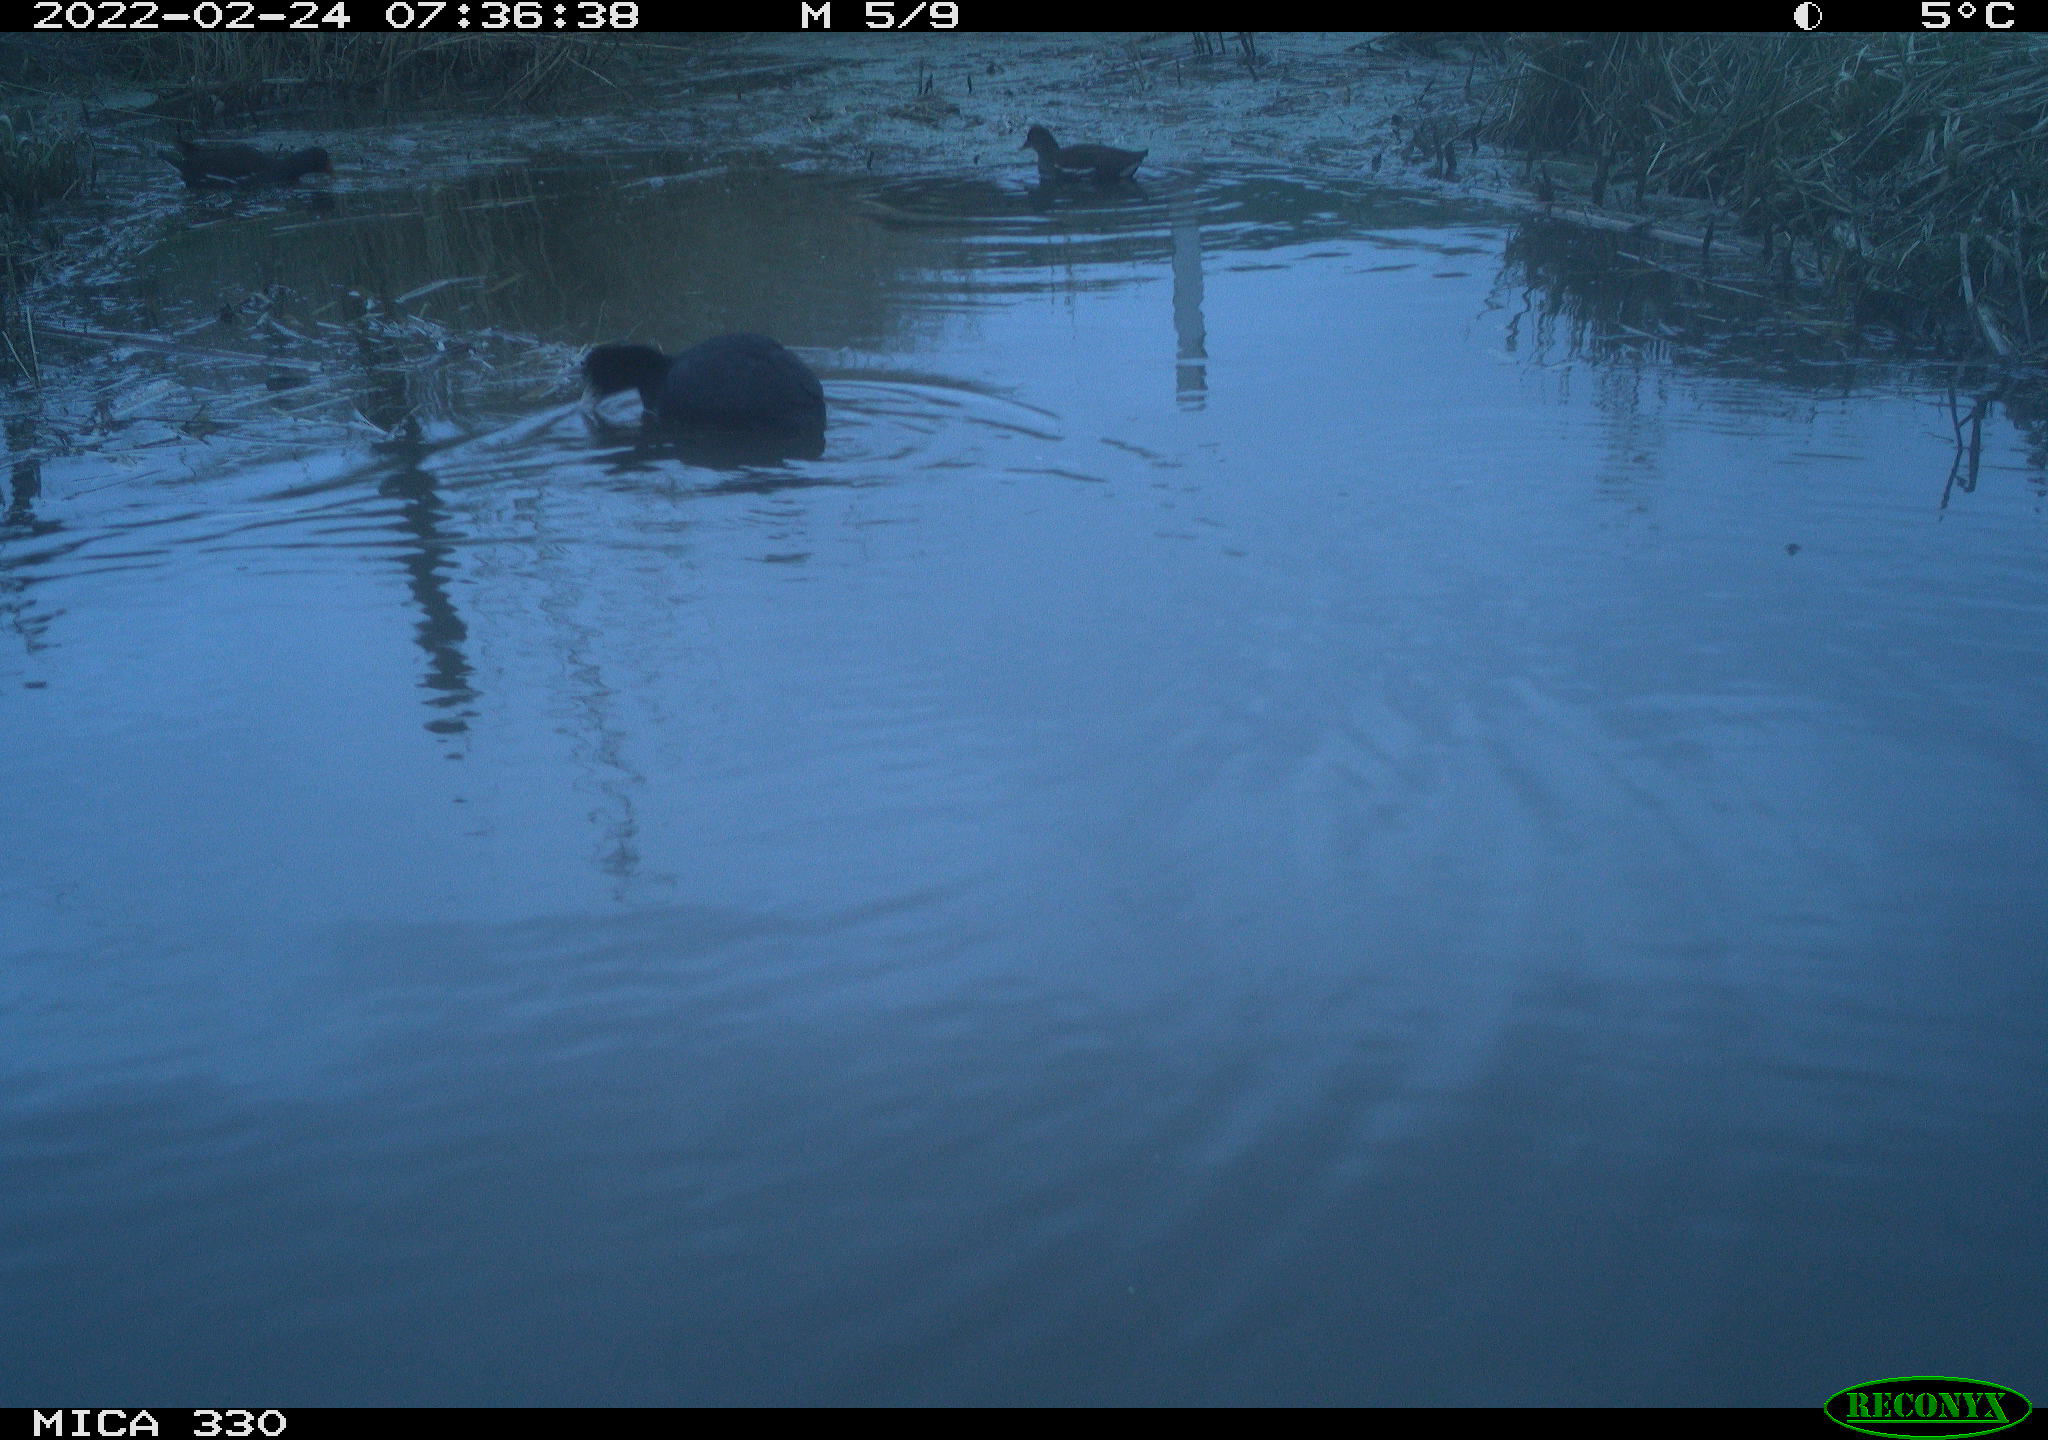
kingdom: Animalia
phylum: Chordata
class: Aves
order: Gruiformes
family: Rallidae
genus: Fulica
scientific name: Fulica atra
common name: Eurasian coot
